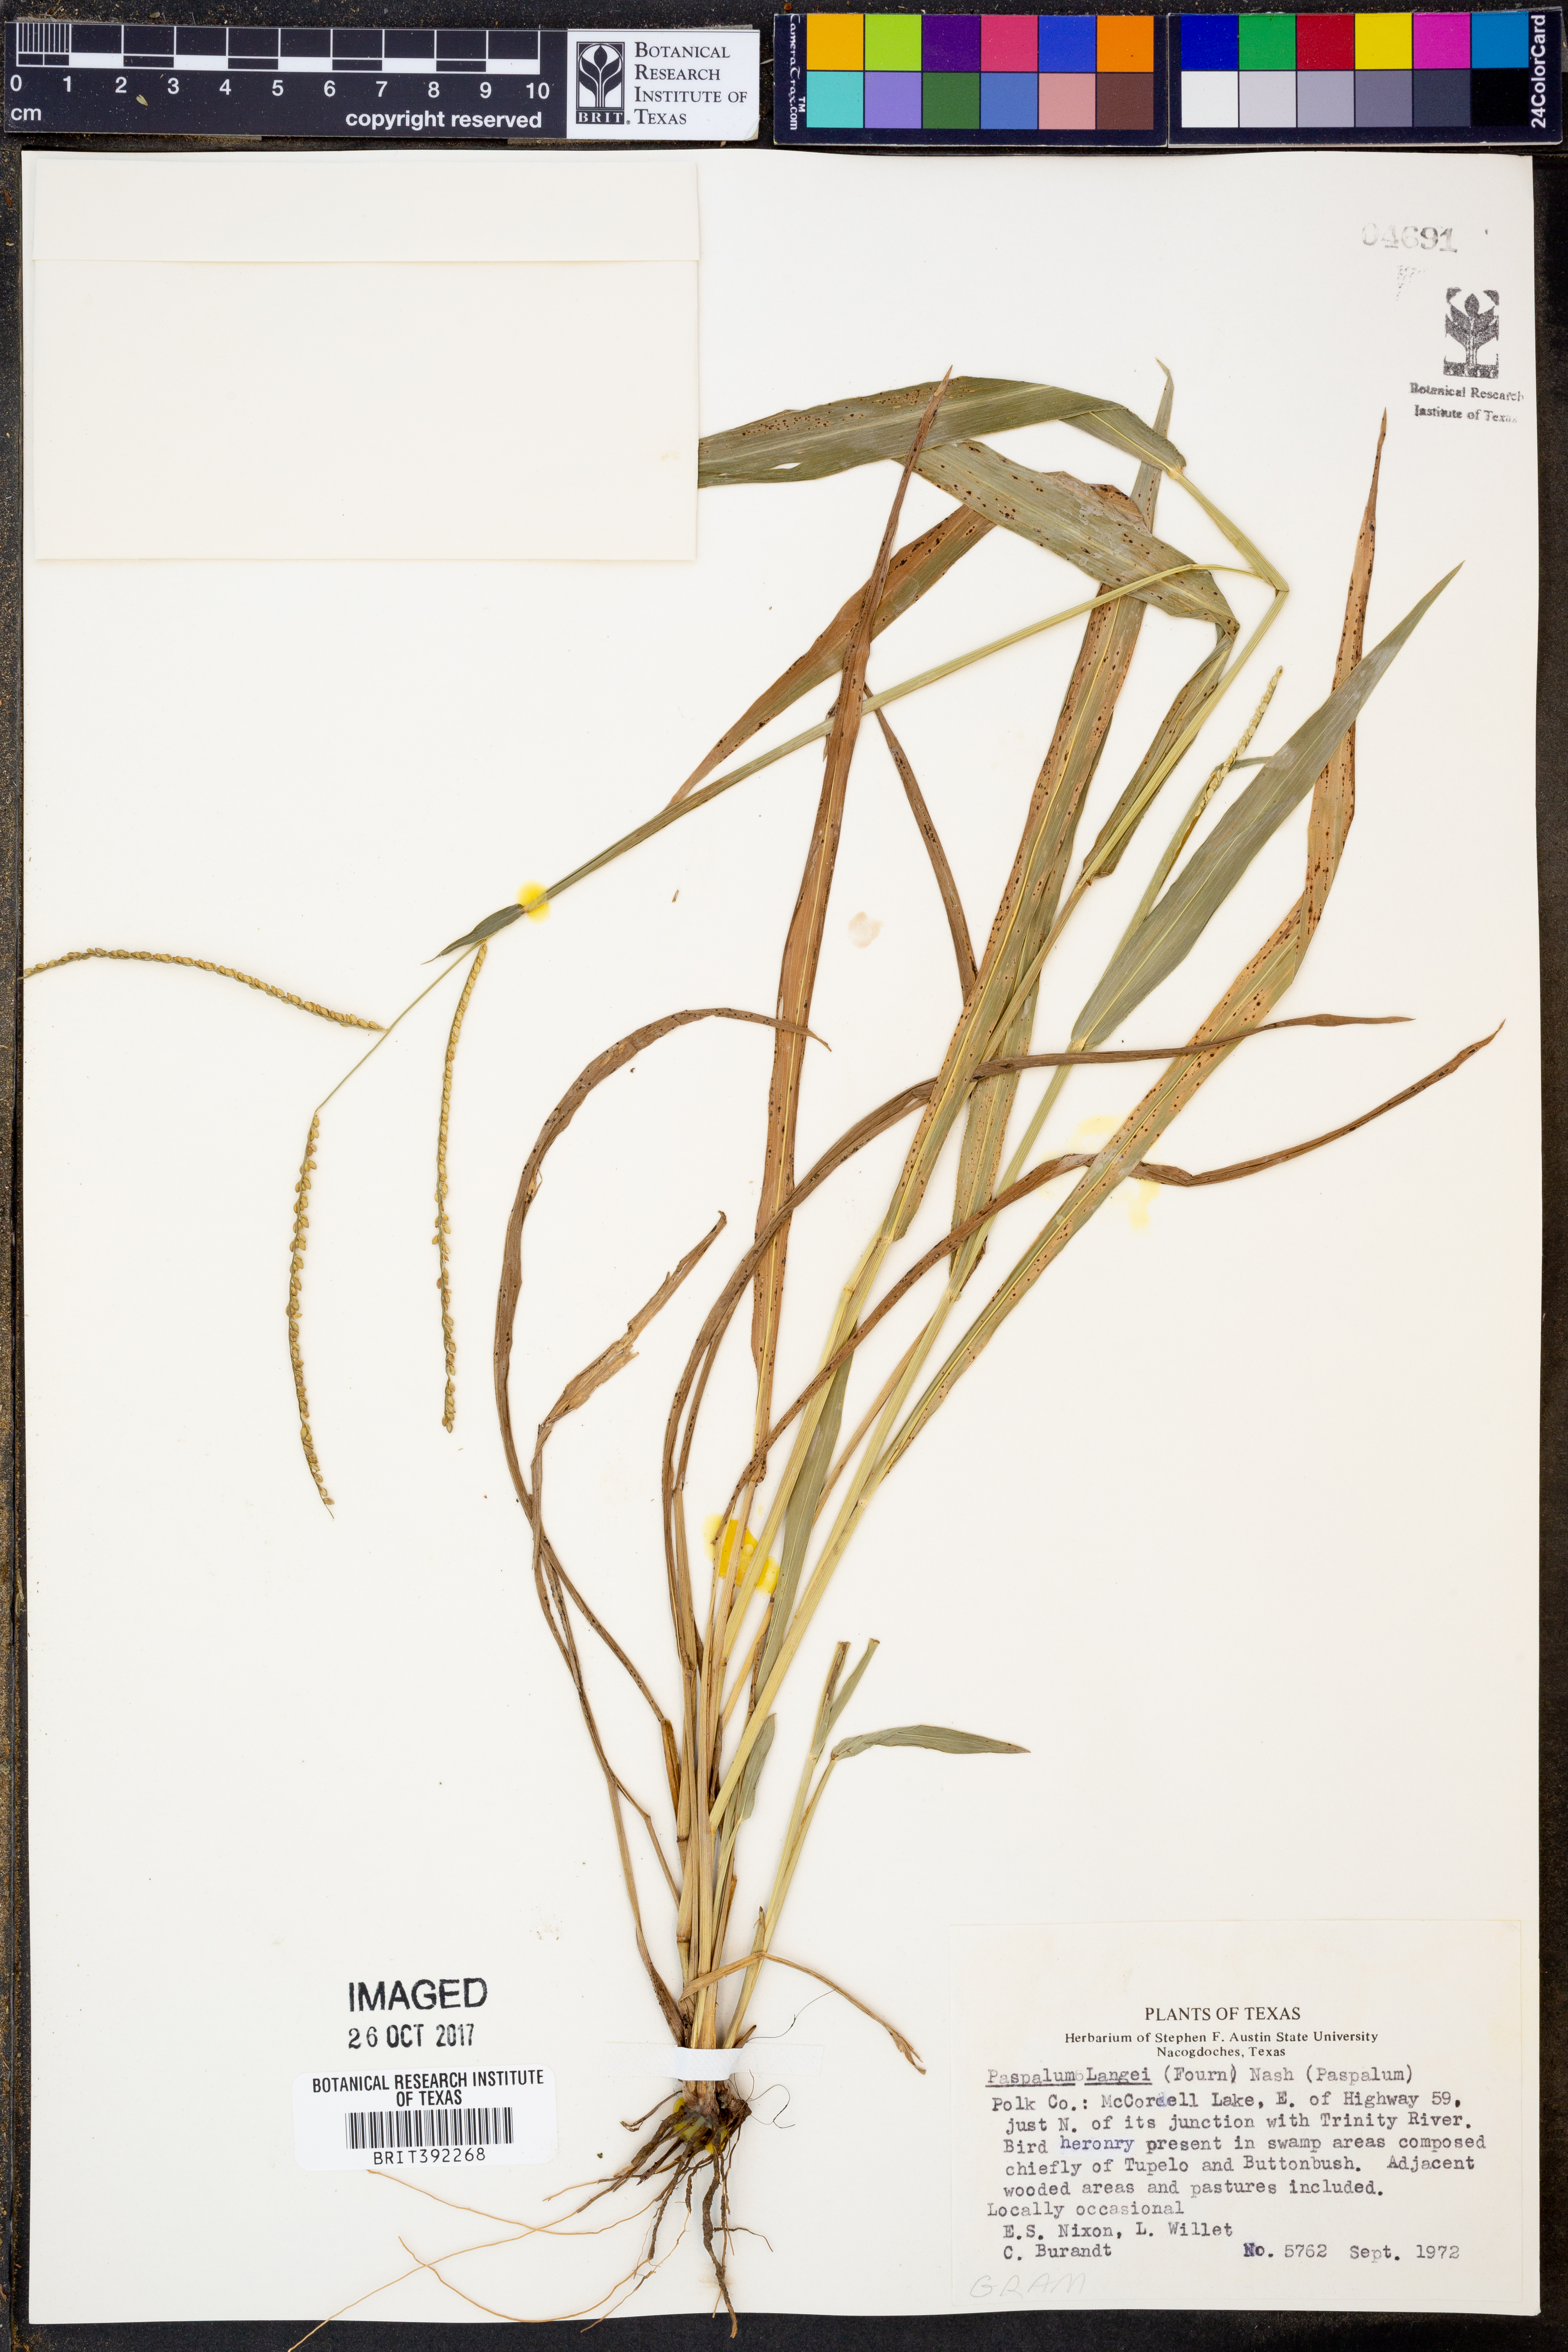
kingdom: Plantae
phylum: Tracheophyta
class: Liliopsida
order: Poales
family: Poaceae
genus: Paspalum
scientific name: Paspalum langei
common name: Rusty-seed paspalum
